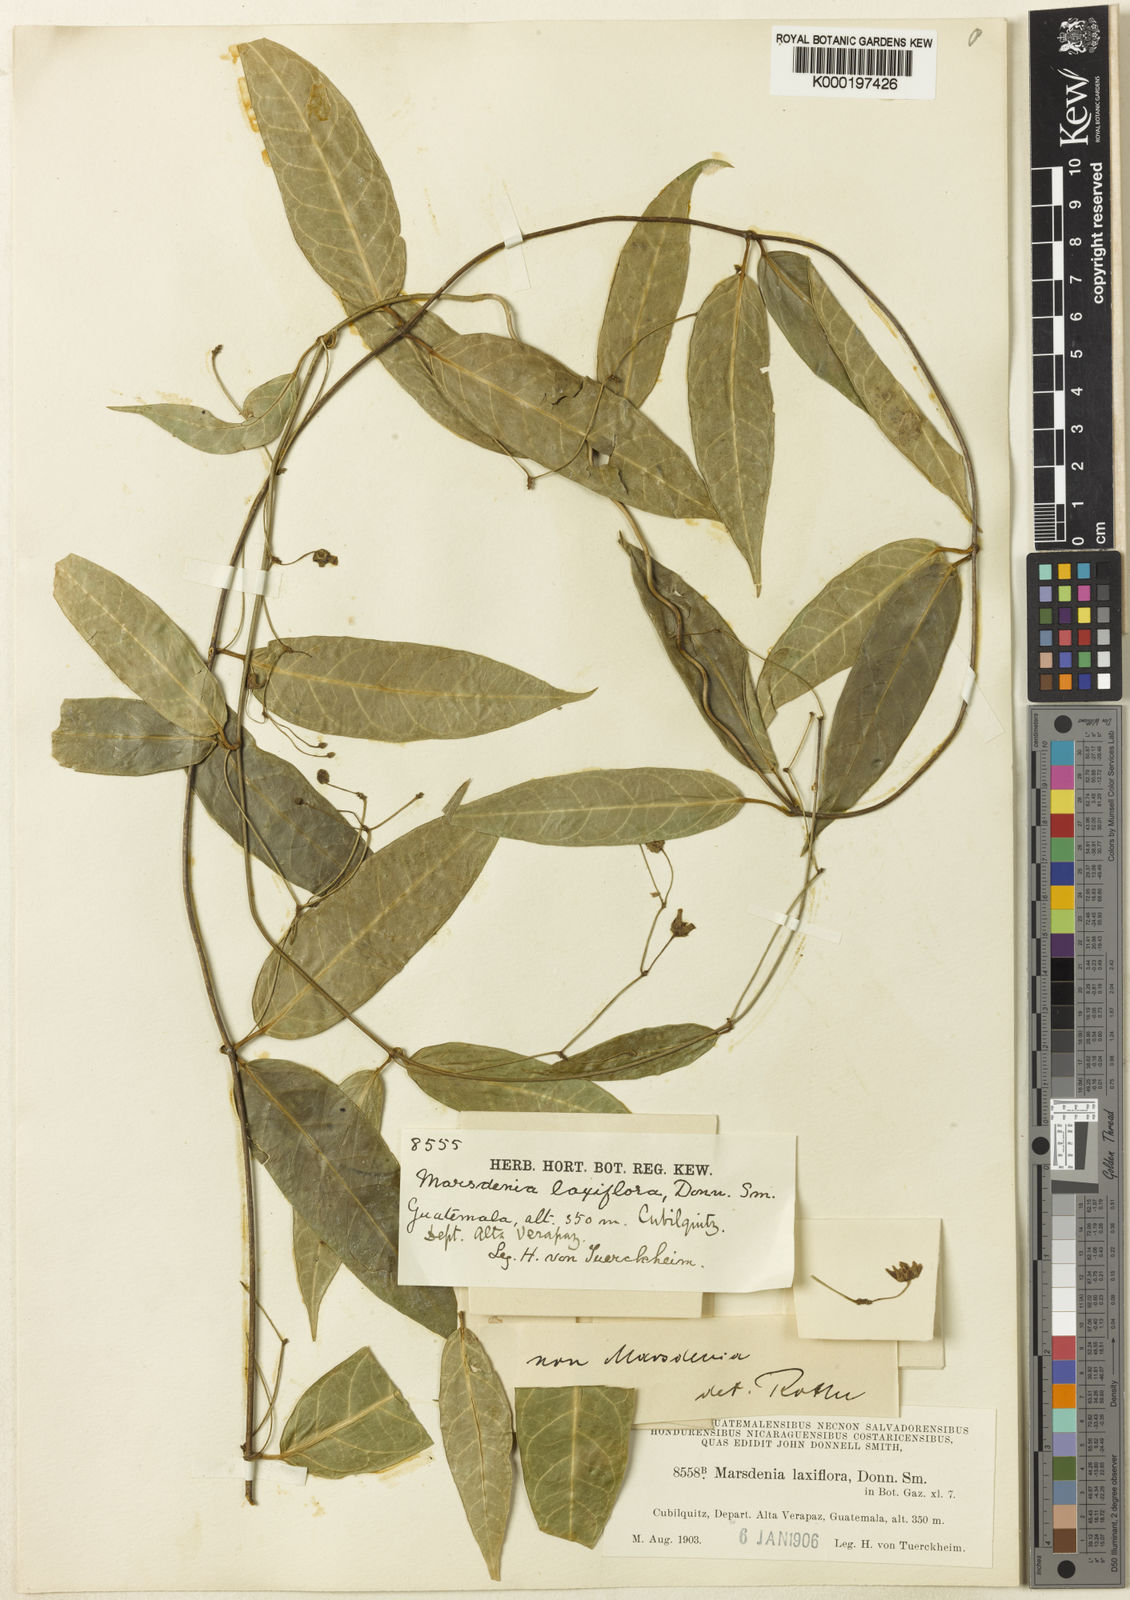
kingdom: Plantae
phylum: Tracheophyta
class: Magnoliopsida
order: Gentianales
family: Apocynaceae
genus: Ruehssia
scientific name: Ruehssia laxiflora
